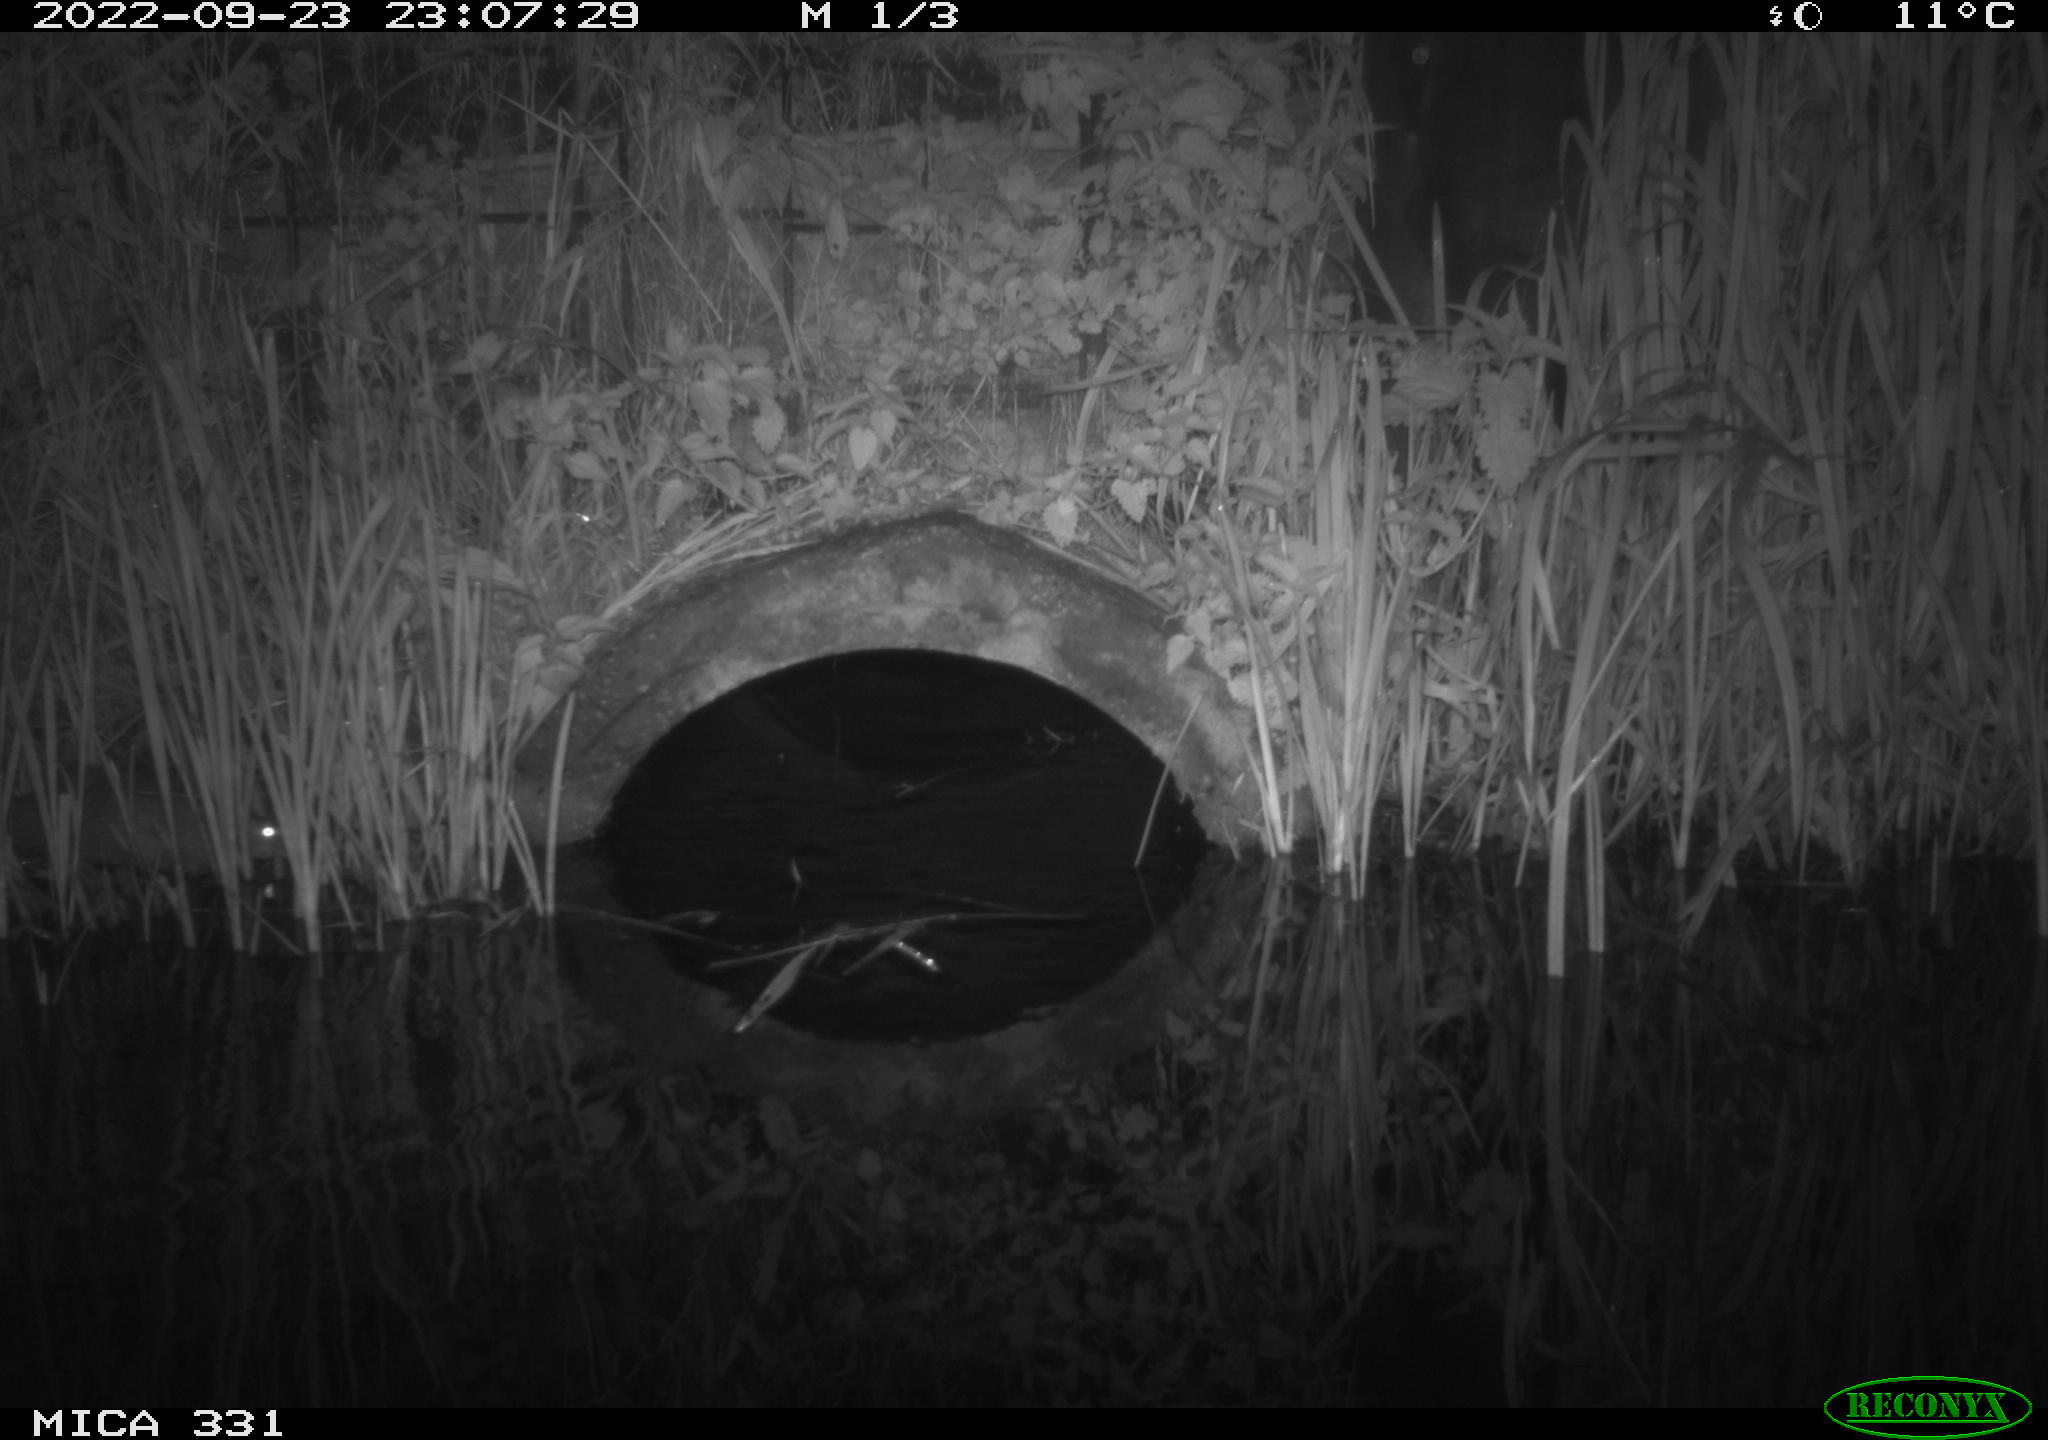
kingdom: Animalia
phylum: Chordata
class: Mammalia
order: Rodentia
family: Muridae
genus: Rattus
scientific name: Rattus norvegicus
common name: Brown rat
